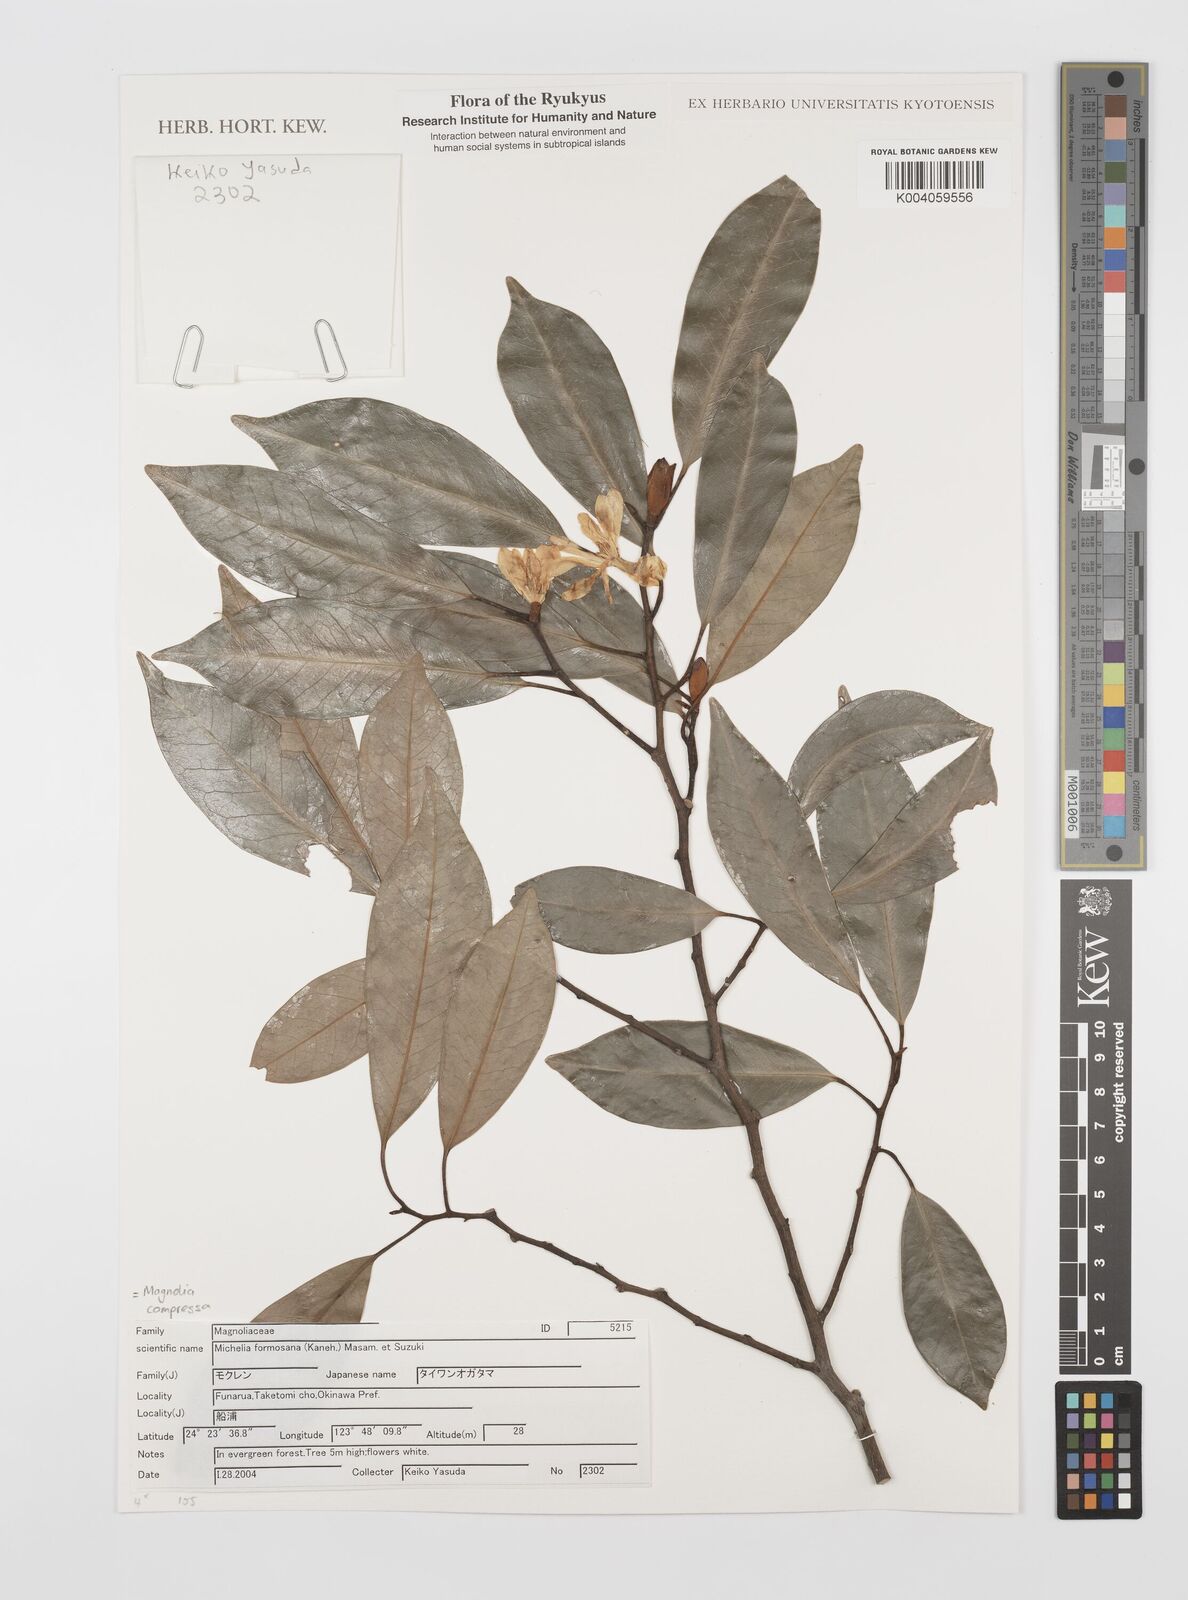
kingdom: Plantae
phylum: Tracheophyta
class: Magnoliopsida
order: Magnoliales
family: Magnoliaceae
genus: Magnolia
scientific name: Magnolia compressa
